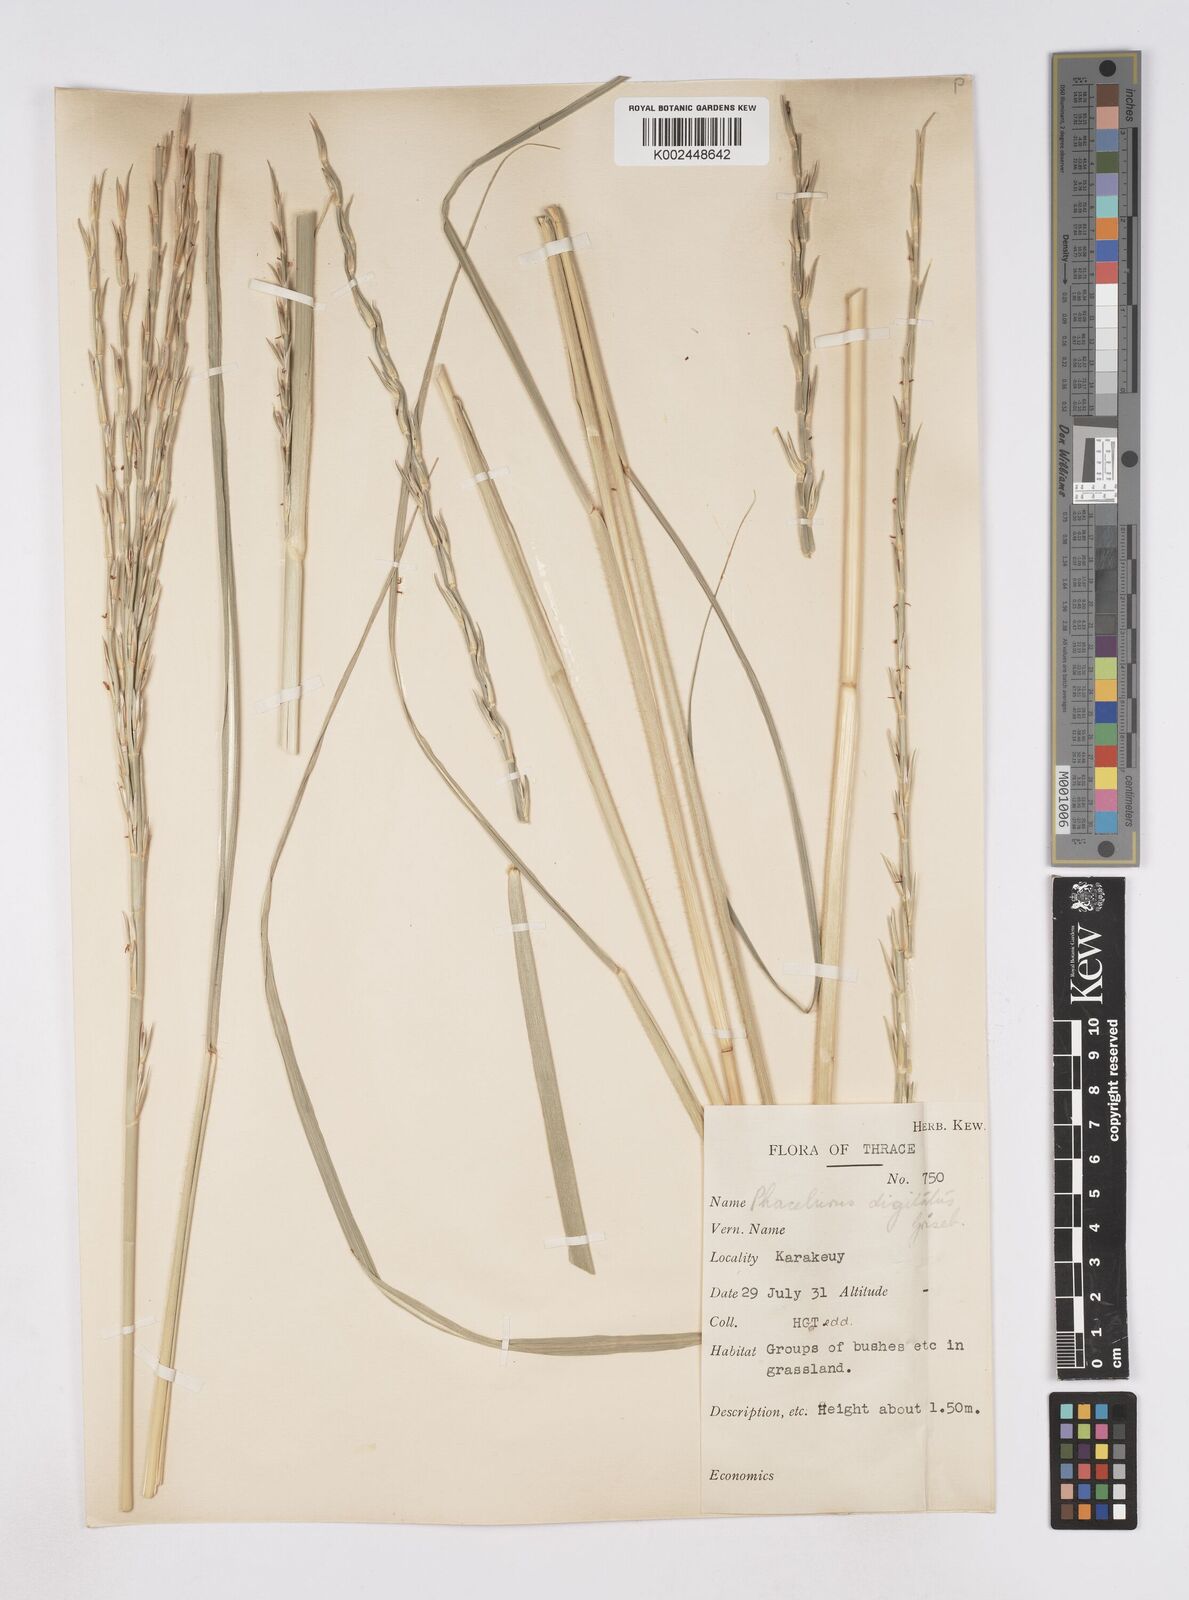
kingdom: Plantae
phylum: Tracheophyta
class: Liliopsida
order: Poales
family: Poaceae
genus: Phacelurus
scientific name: Phacelurus digitatus
